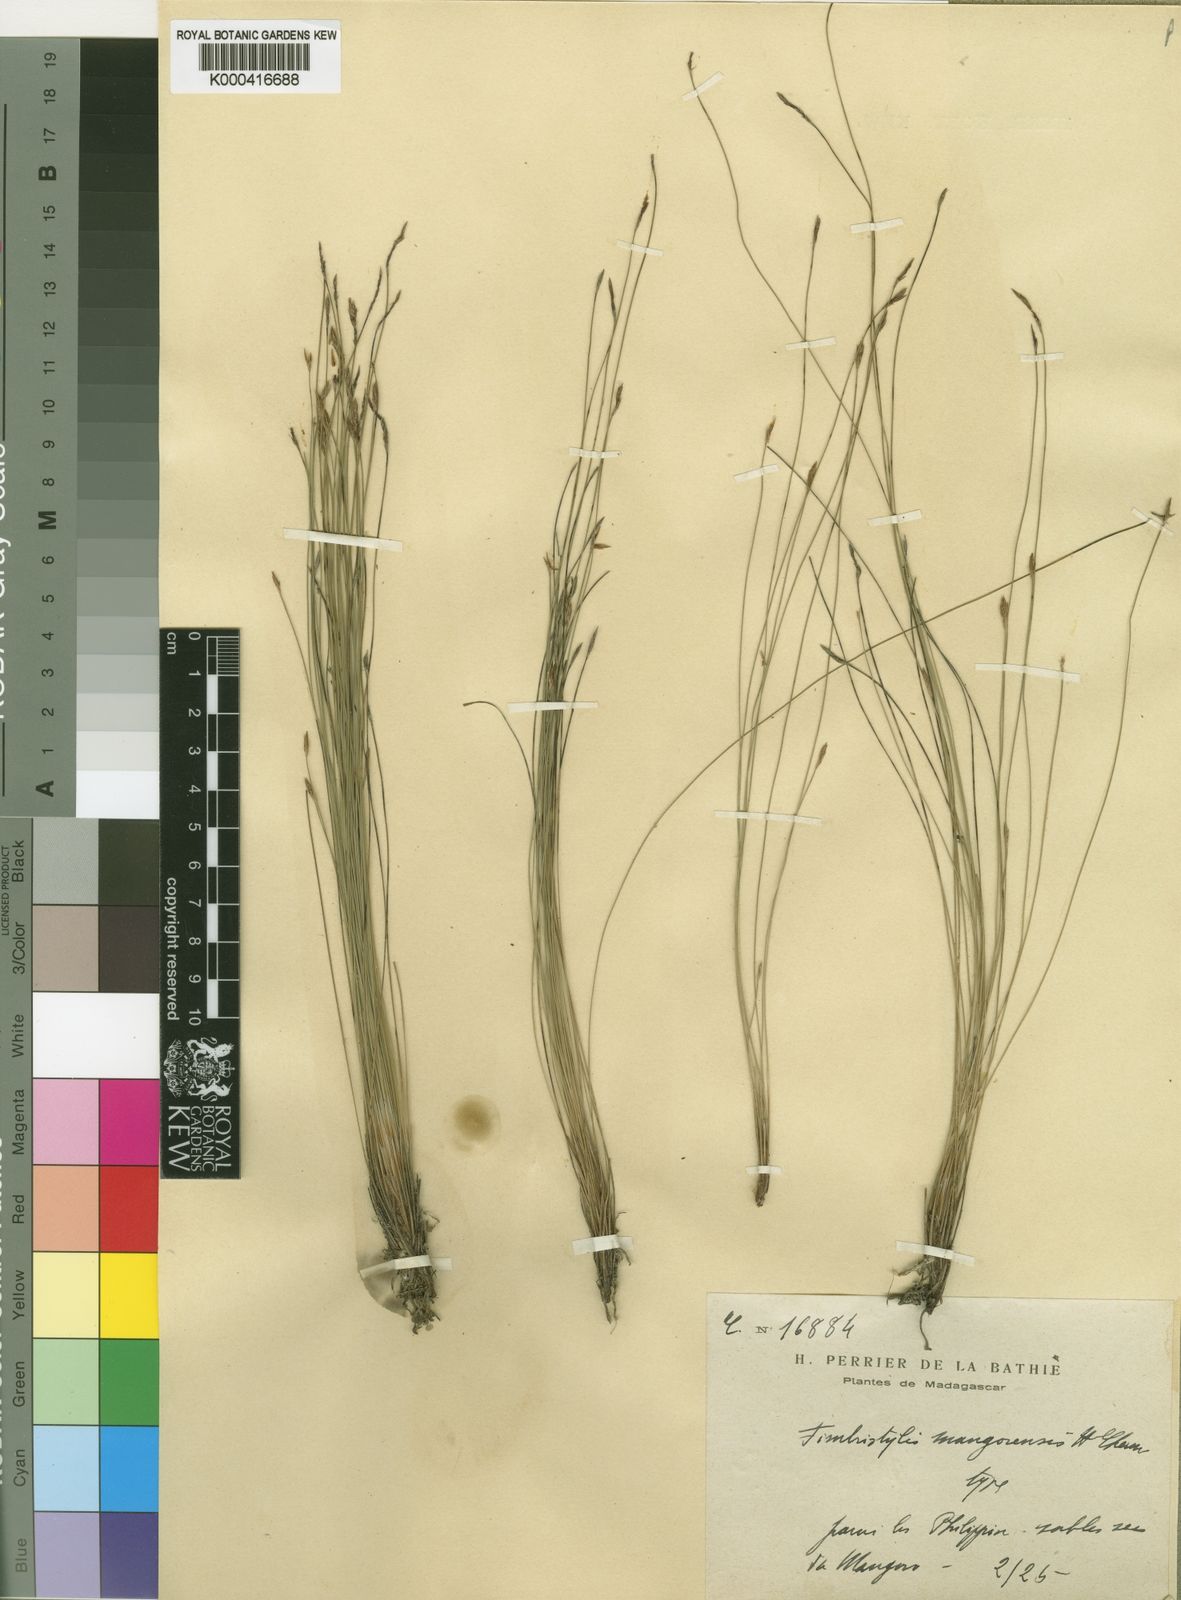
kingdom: Plantae
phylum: Tracheophyta
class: Liliopsida
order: Poales
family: Cyperaceae
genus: Fimbristylis
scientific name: Fimbristylis mangorensis
